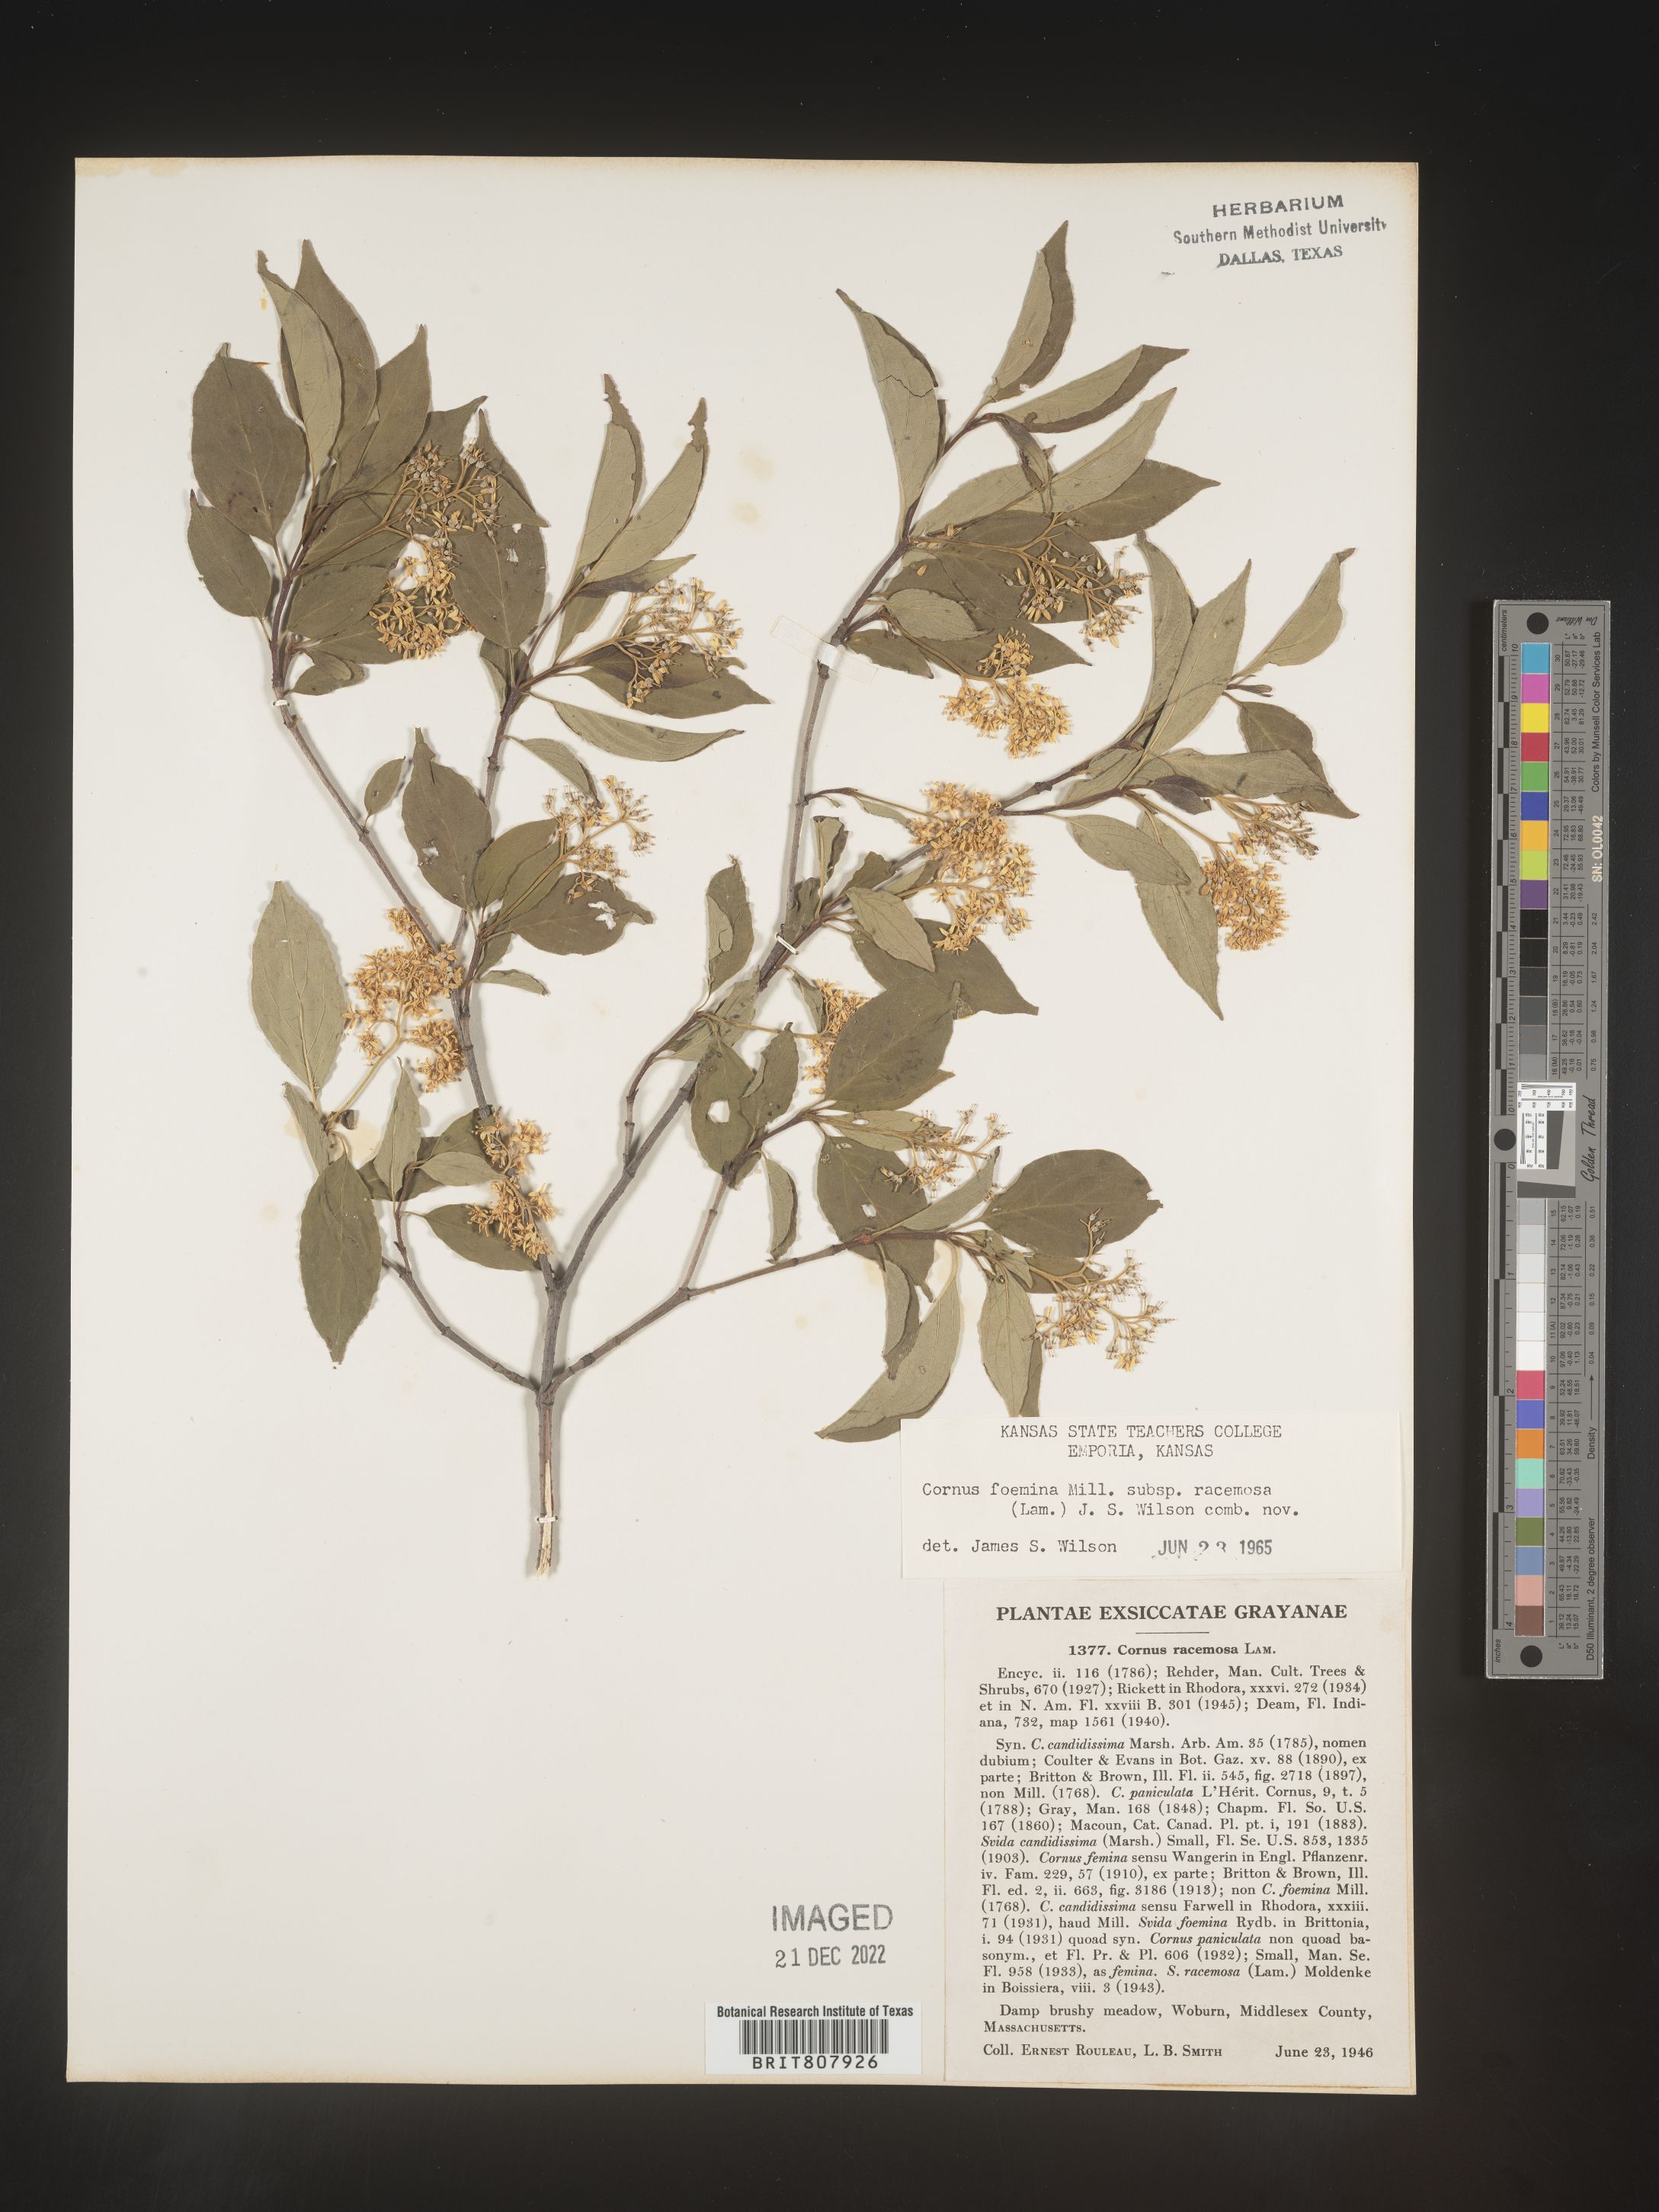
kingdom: Plantae
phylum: Tracheophyta
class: Magnoliopsida
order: Cornales
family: Cornaceae
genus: Cornus
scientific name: Cornus racemosa
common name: Panicled dogwood
